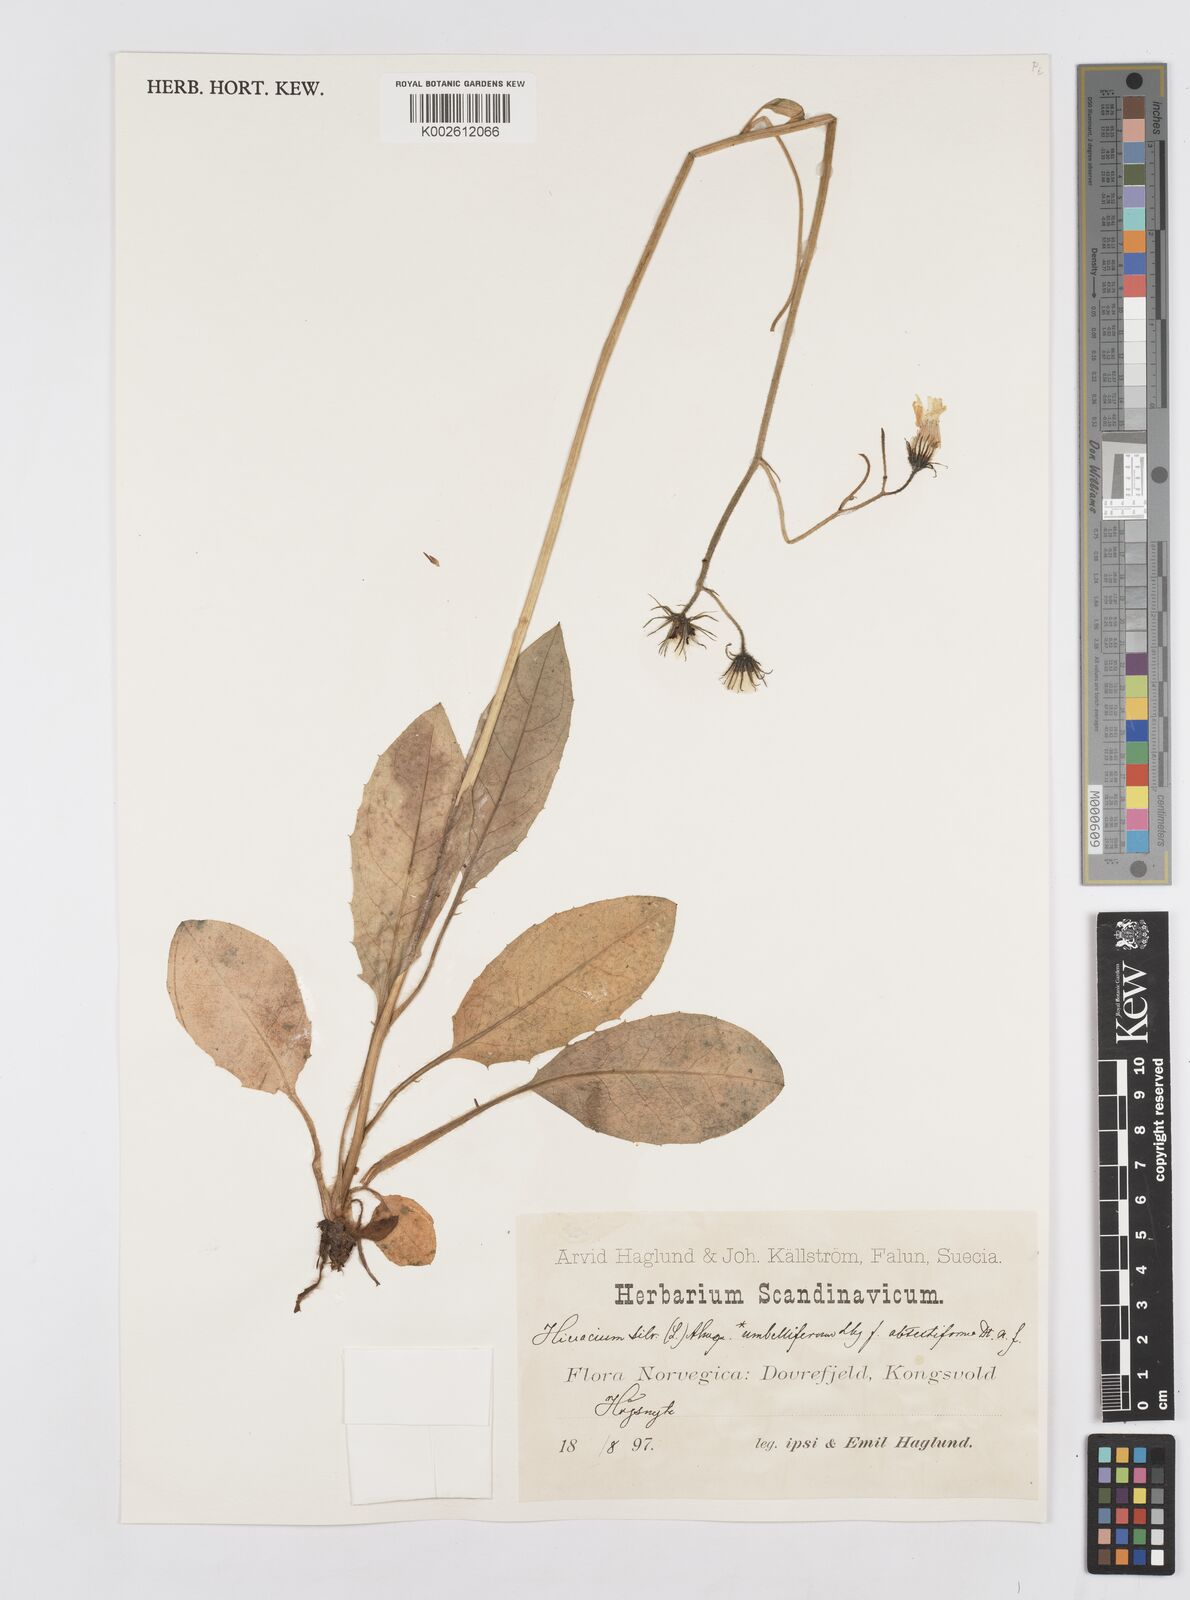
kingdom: Plantae
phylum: Tracheophyta
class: Magnoliopsida
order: Asterales
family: Asteraceae
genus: Pilosella
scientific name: Pilosella densiflora
